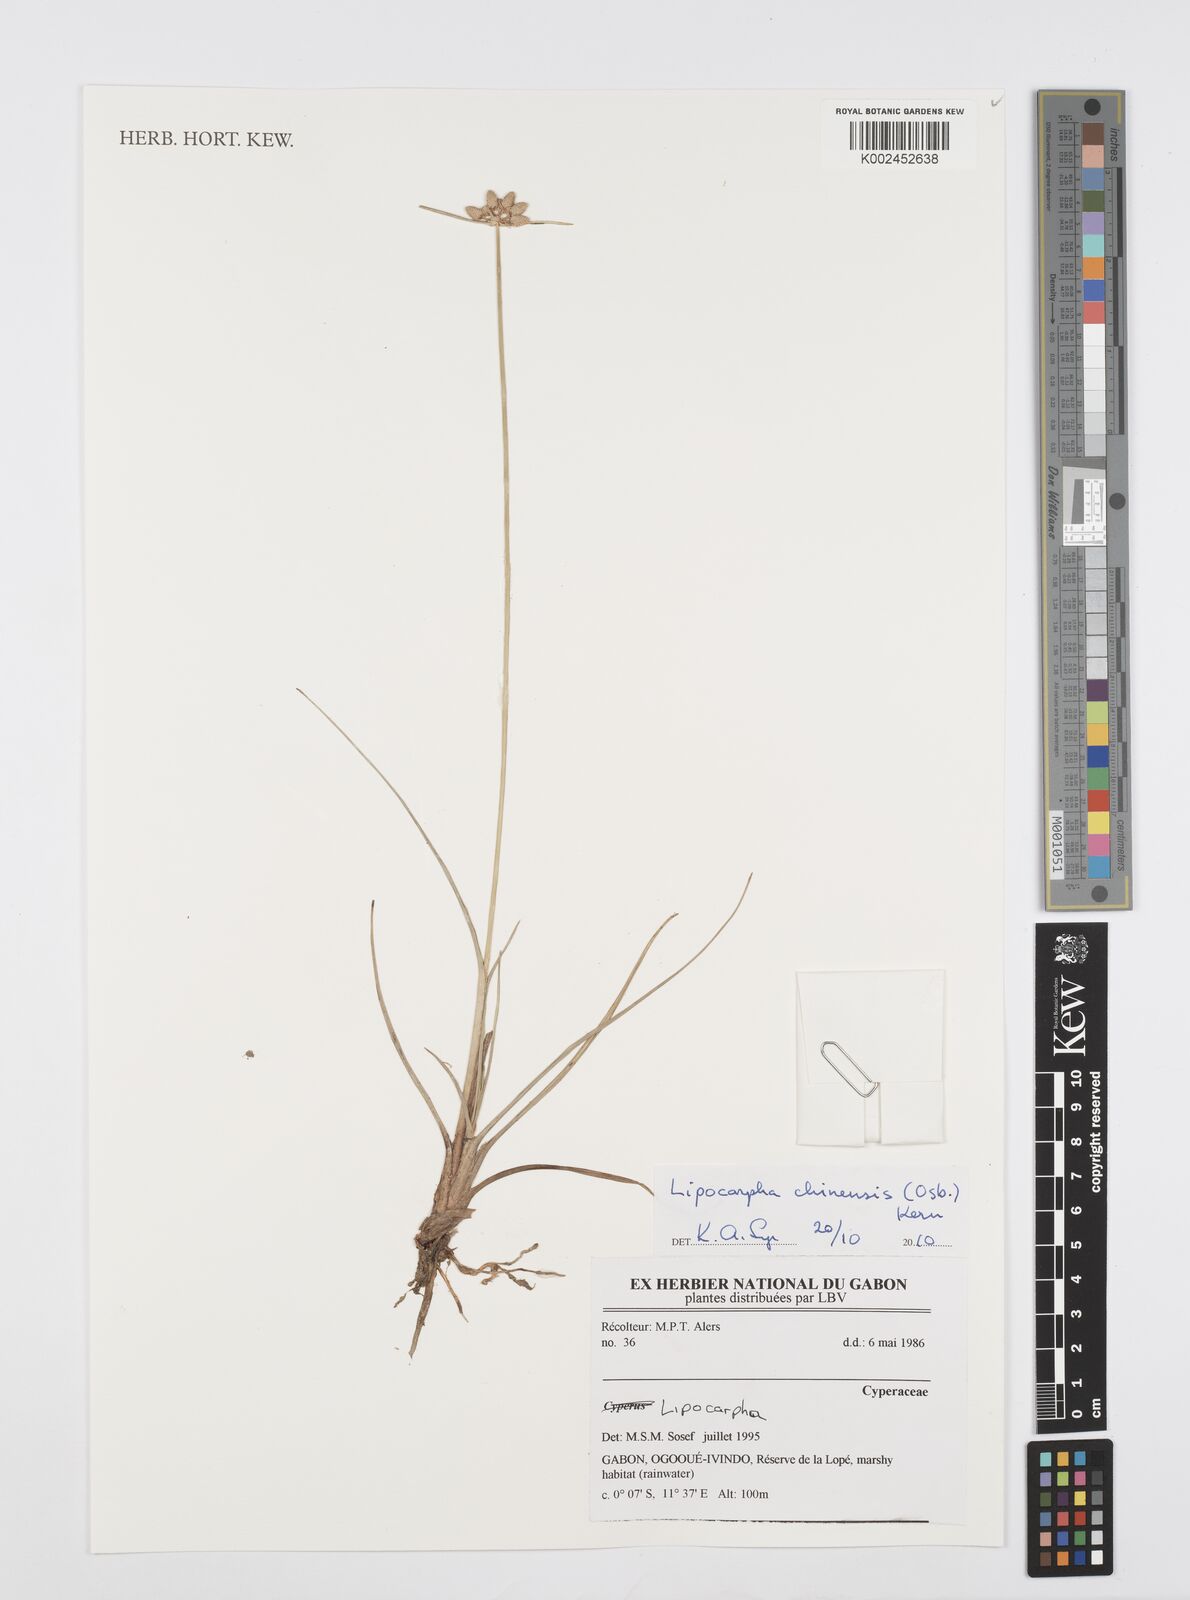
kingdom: Plantae
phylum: Tracheophyta
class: Liliopsida
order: Poales
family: Cyperaceae
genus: Cyperus
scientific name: Cyperus albescens
